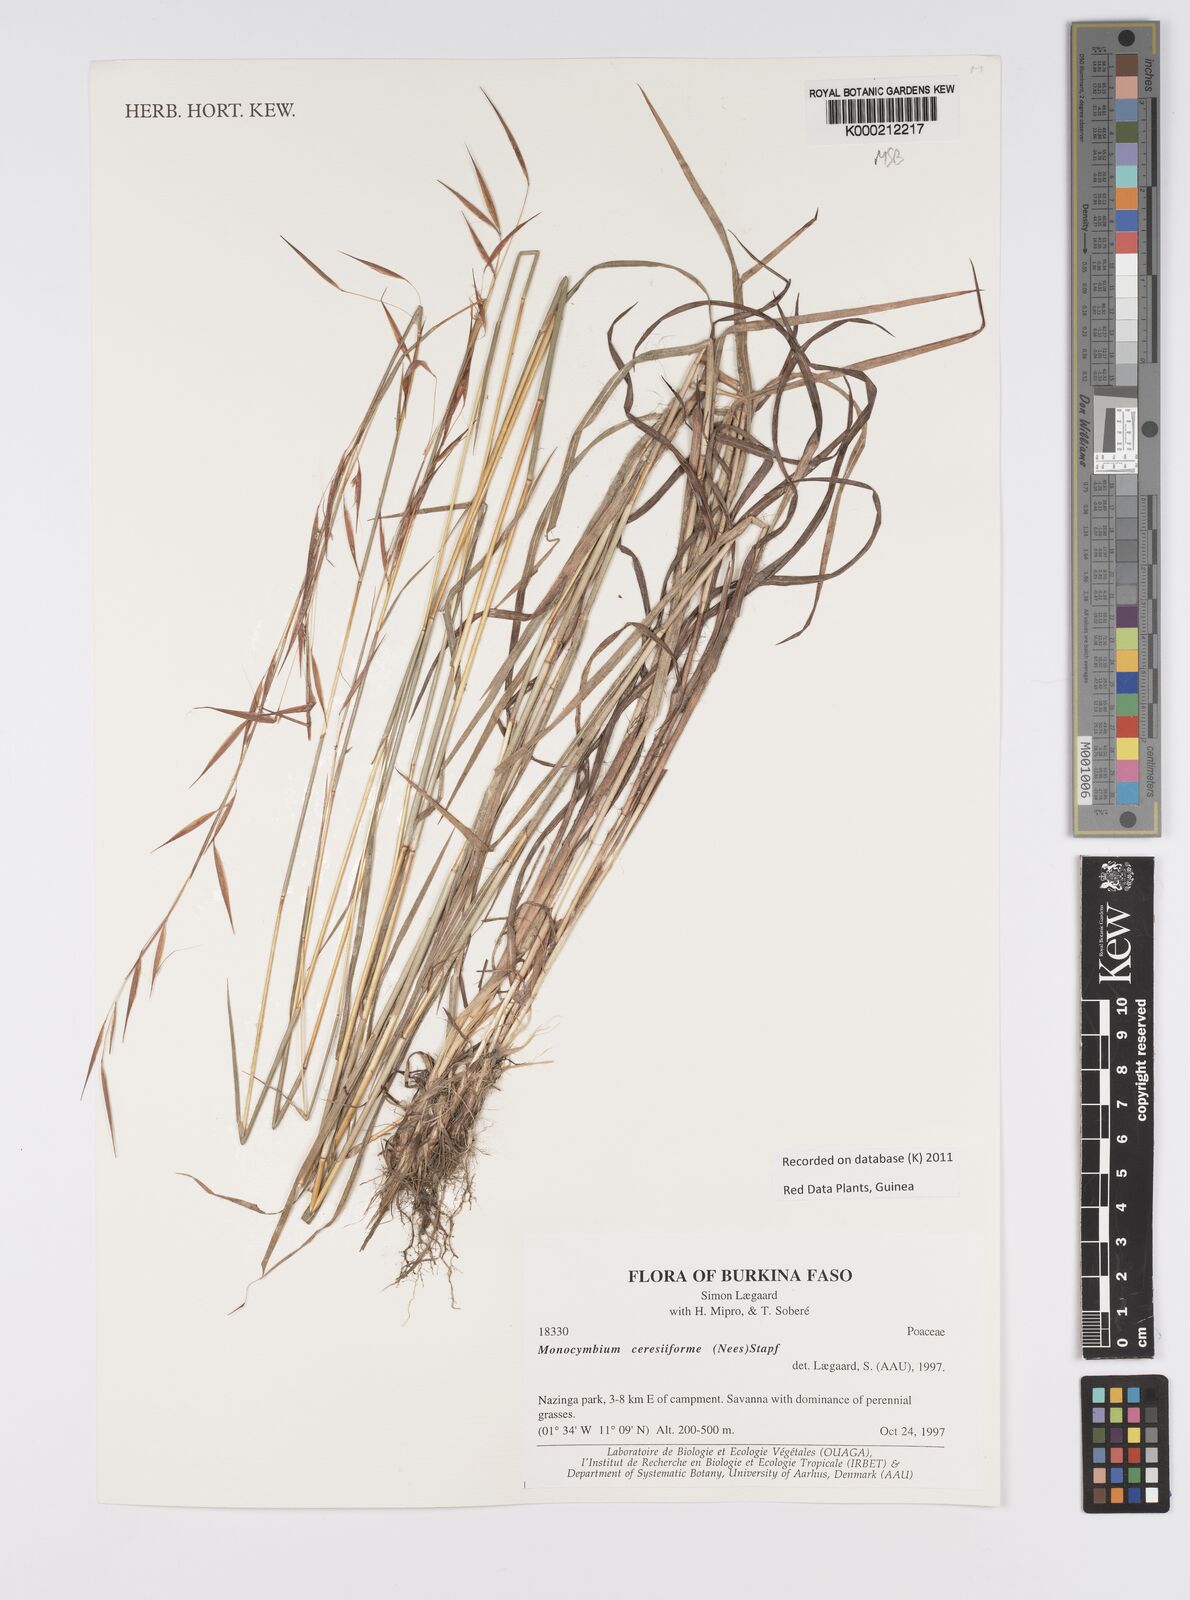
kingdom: Plantae
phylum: Tracheophyta
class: Liliopsida
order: Poales
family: Poaceae
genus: Monocymbium
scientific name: Monocymbium ceresiiforme
